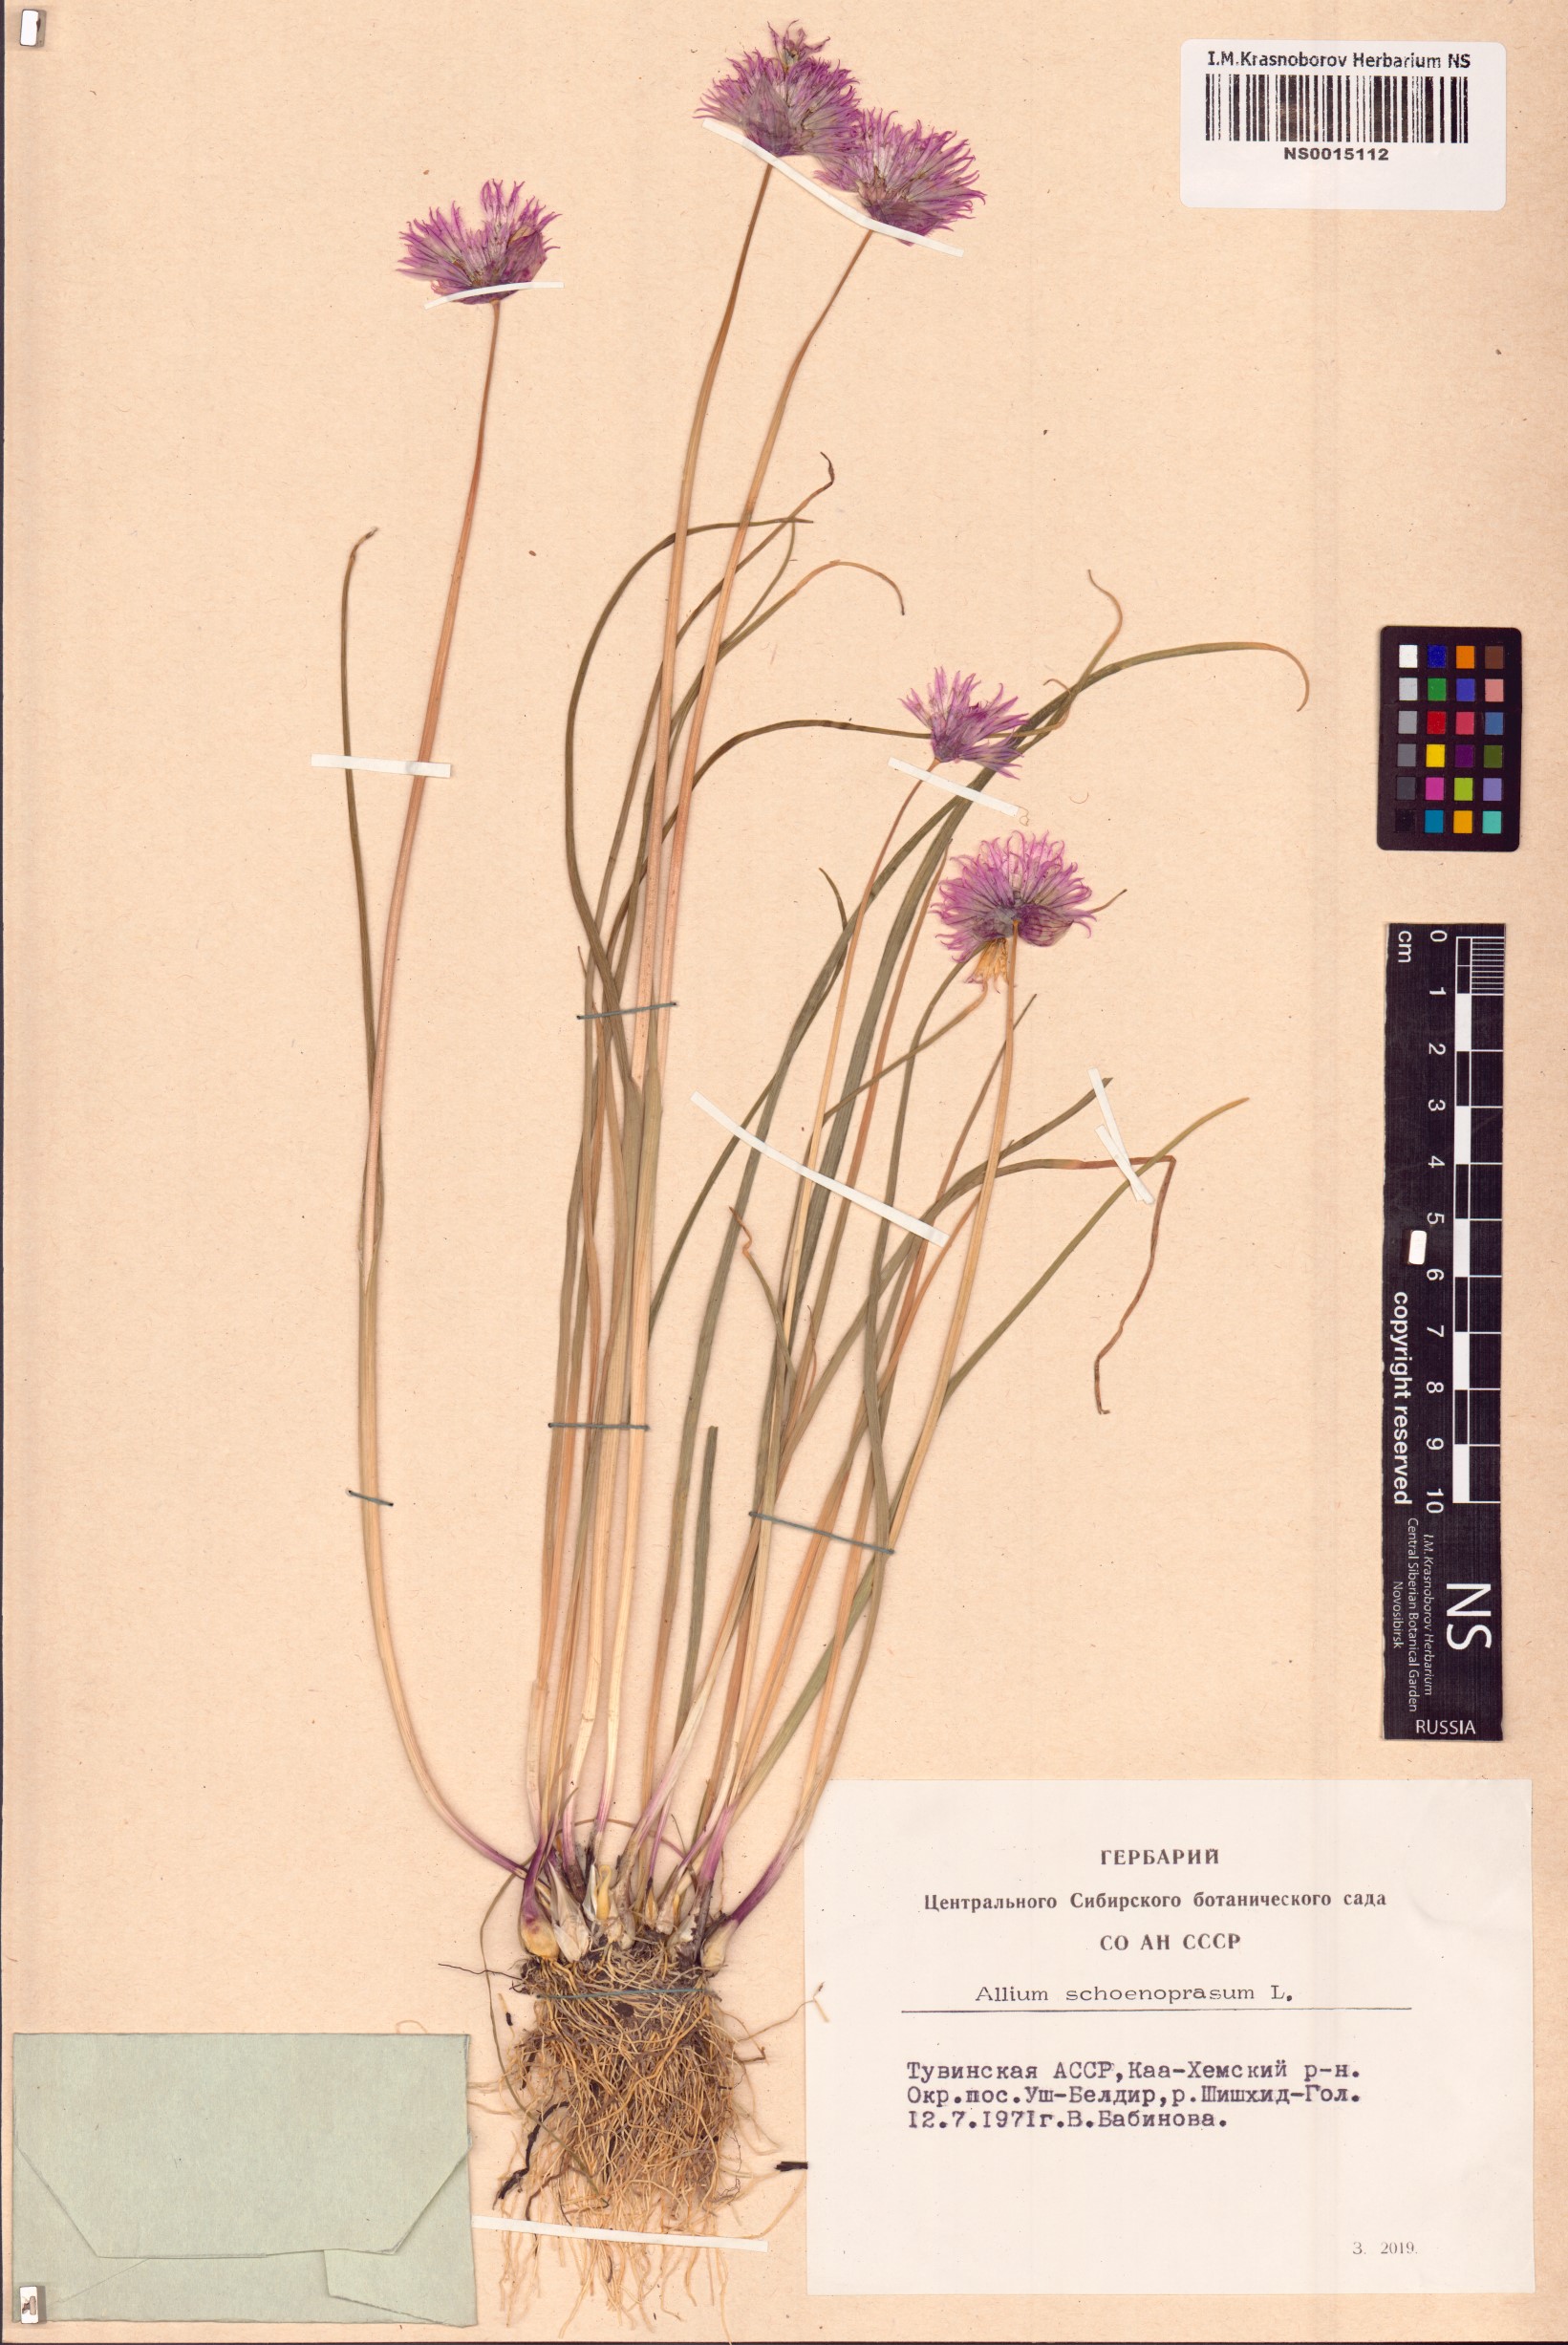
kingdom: Plantae
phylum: Tracheophyta
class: Liliopsida
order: Asparagales
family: Amaryllidaceae
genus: Allium
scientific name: Allium schoenoprasum
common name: Chives
